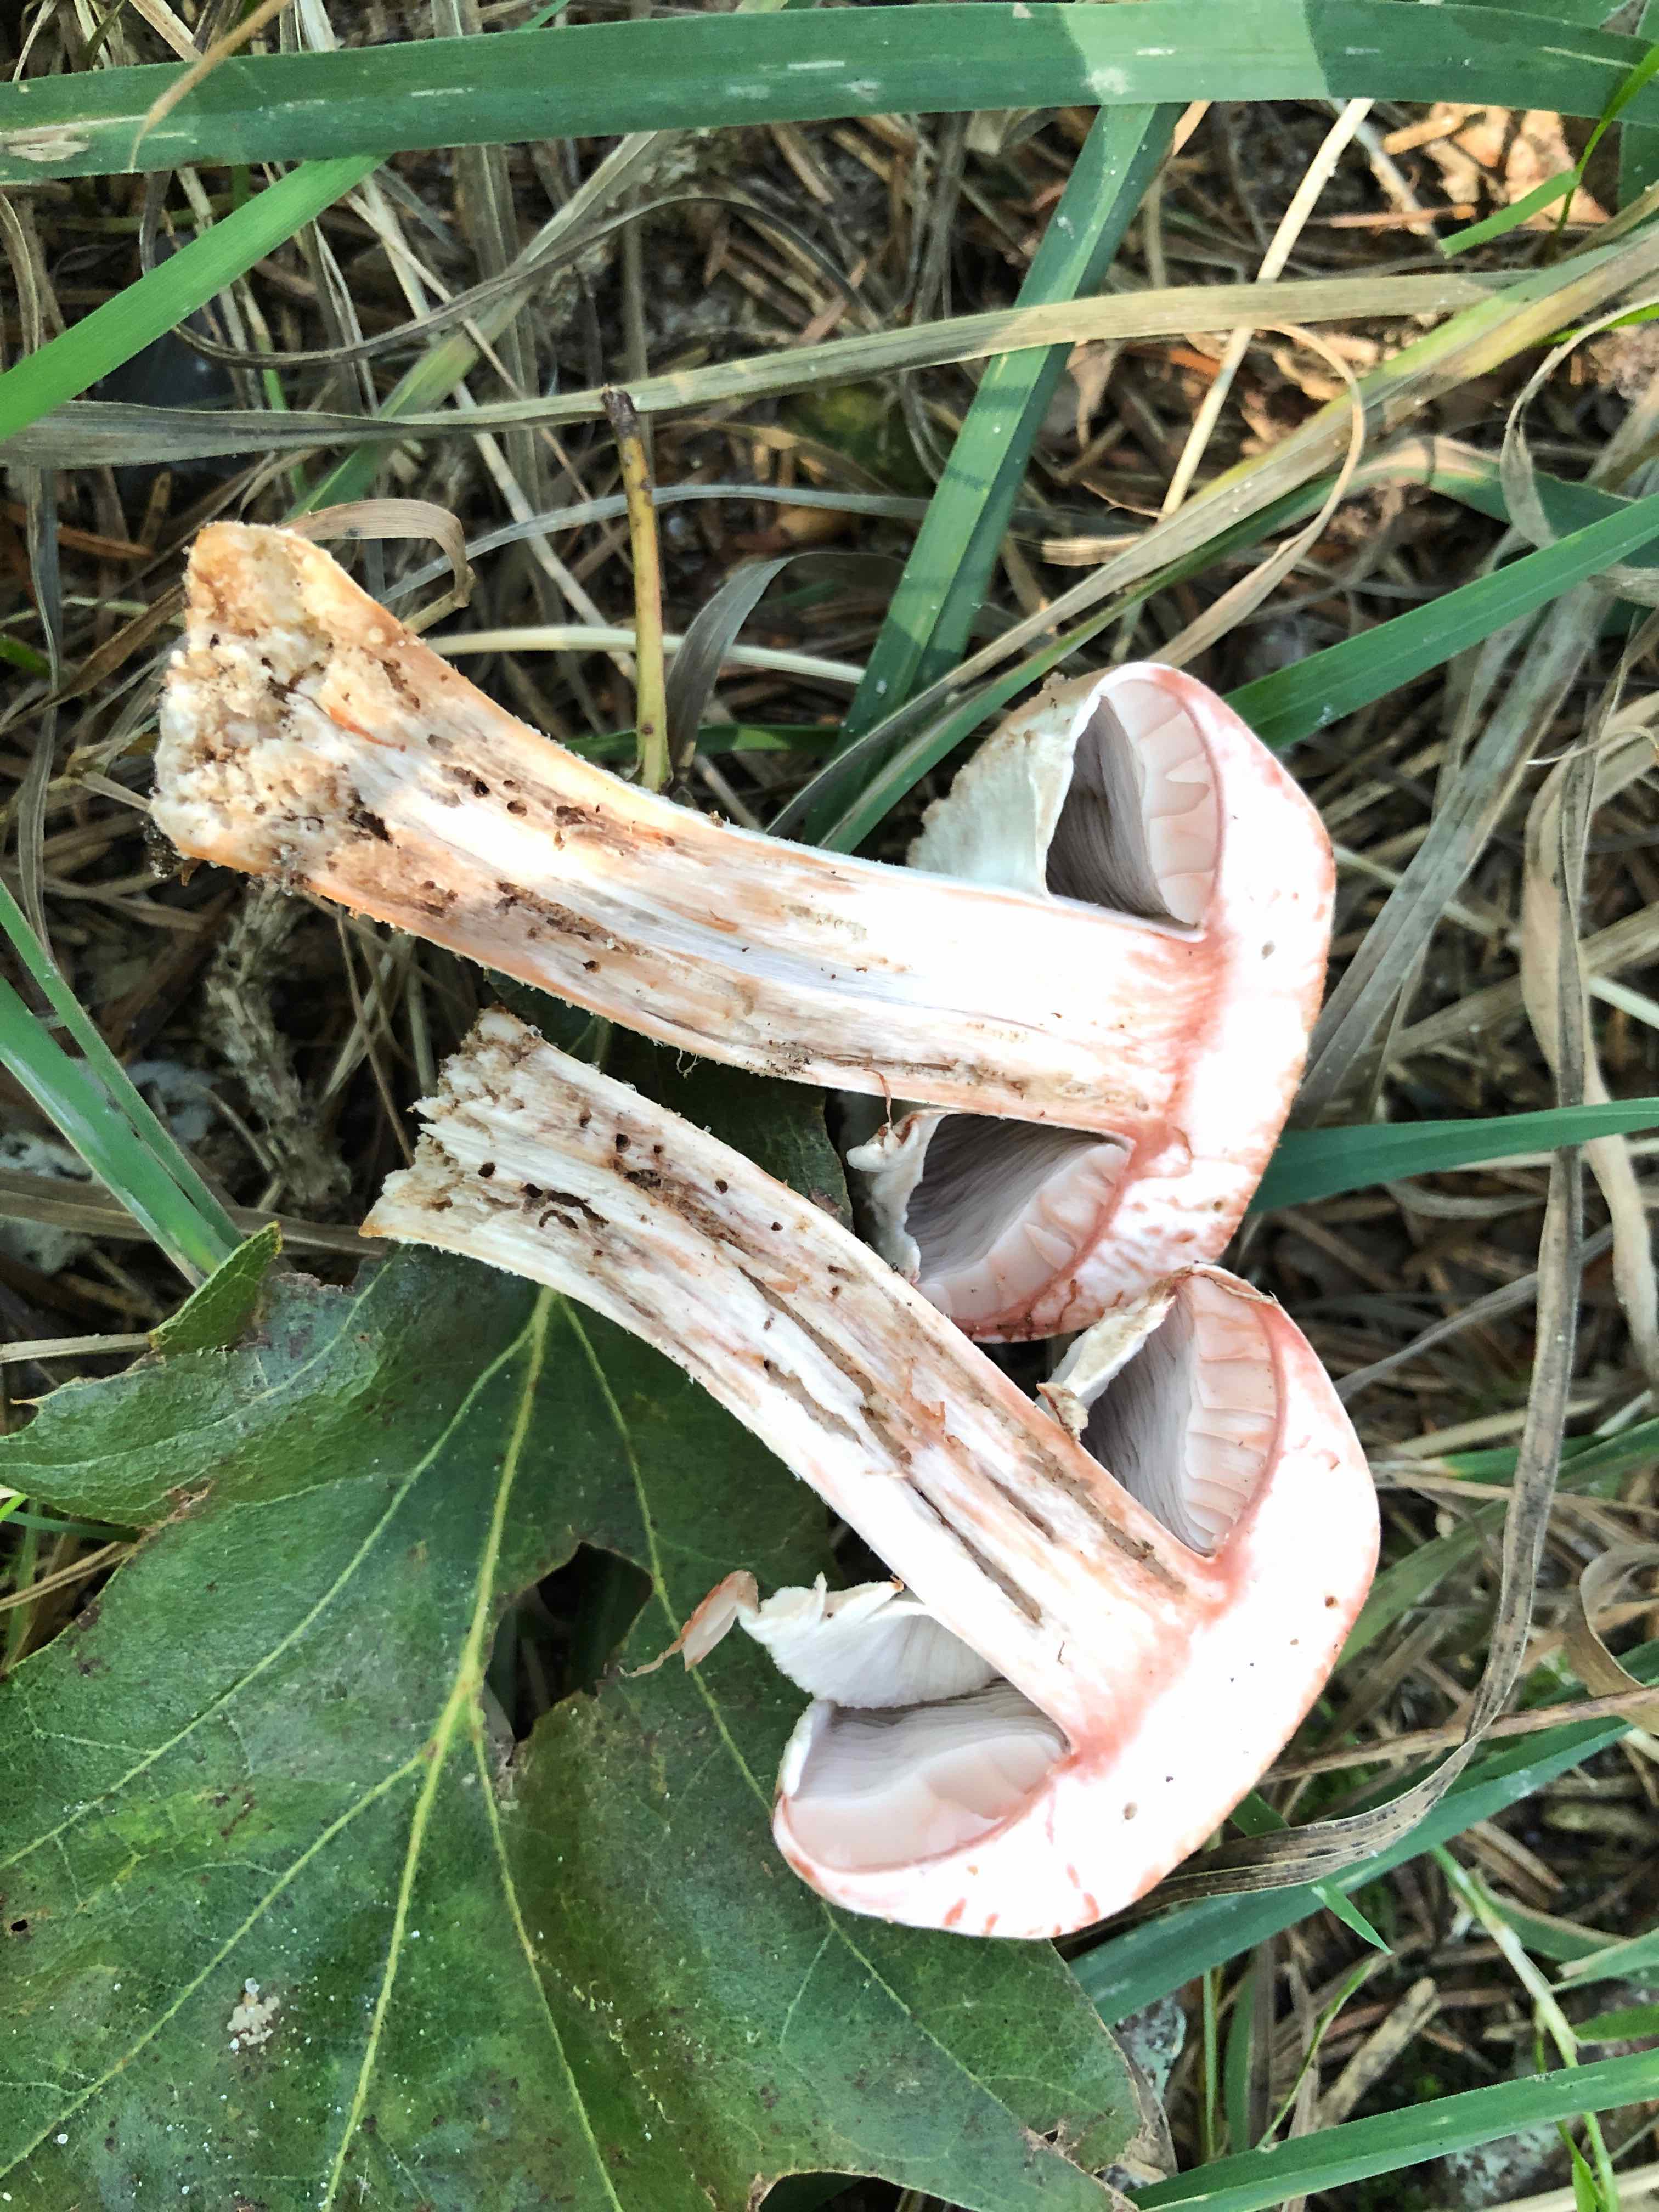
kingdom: Fungi
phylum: Basidiomycota
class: Agaricomycetes
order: Agaricales
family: Agaricaceae
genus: Agaricus
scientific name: Agaricus sylvaticus
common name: lille blod-champignon
